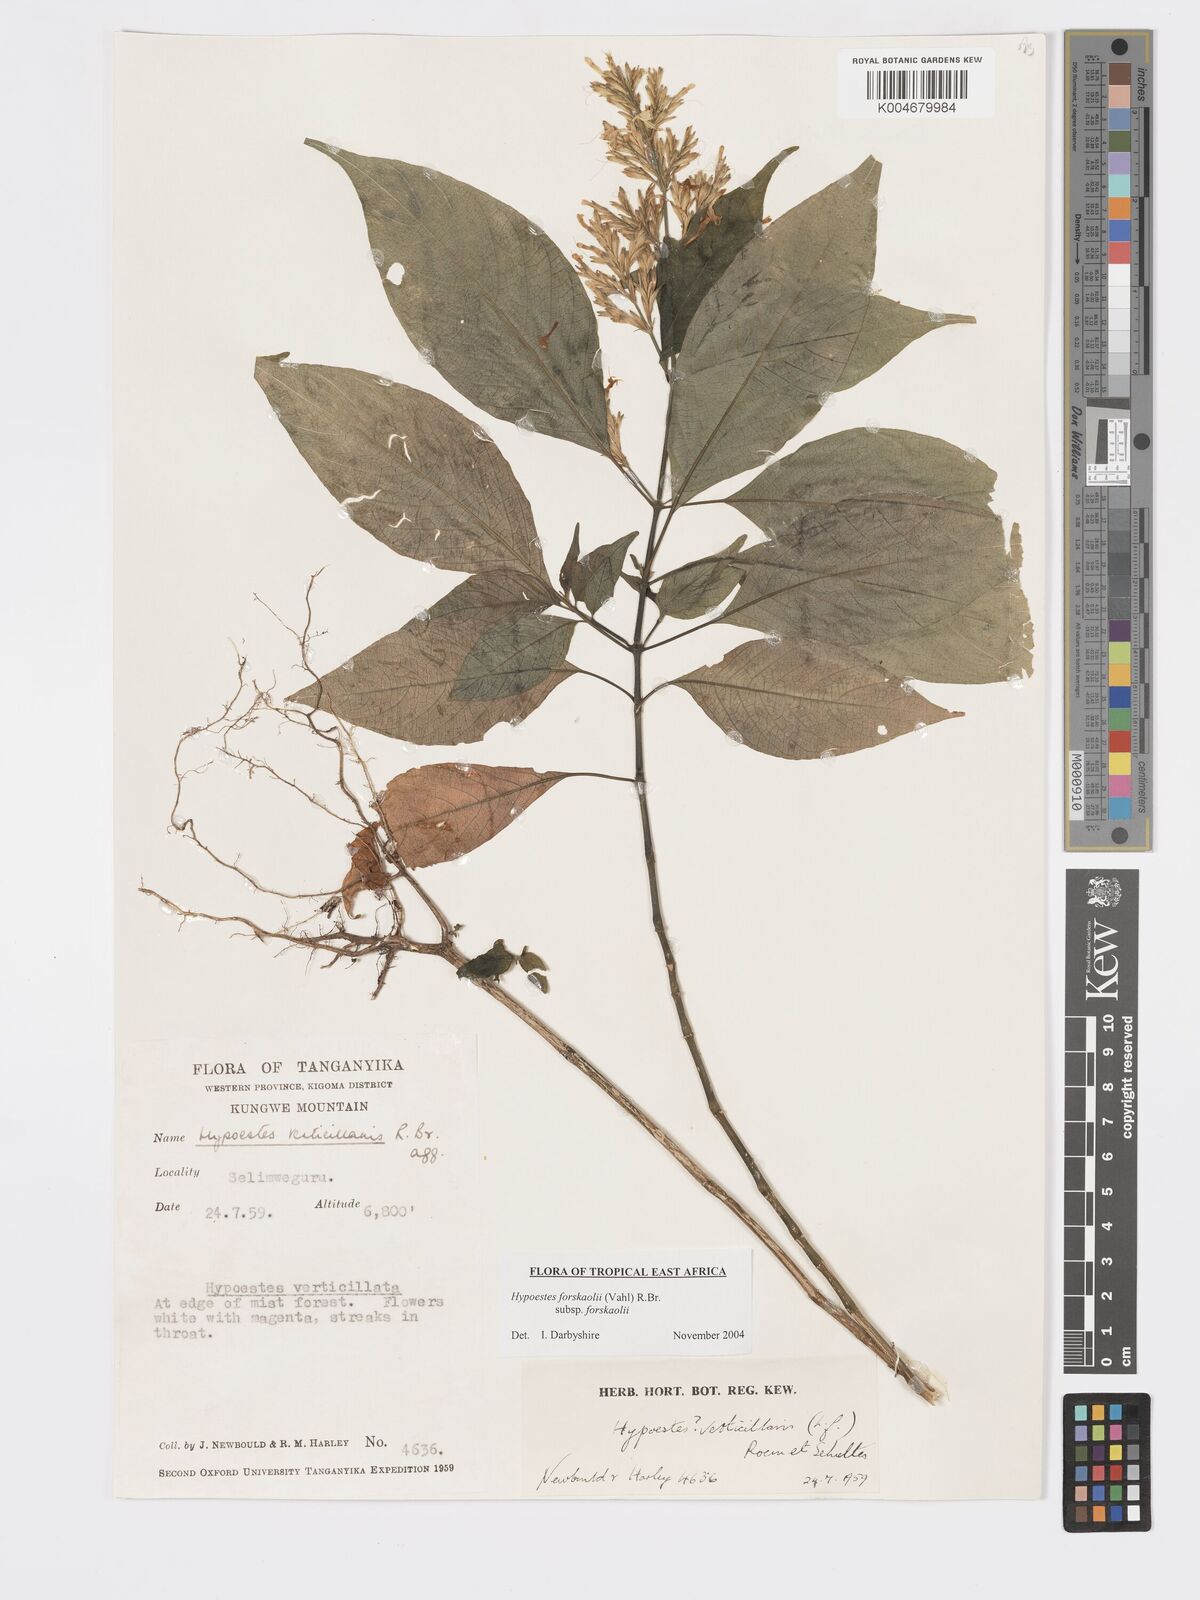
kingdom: Plantae
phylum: Tracheophyta
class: Magnoliopsida
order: Lamiales
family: Acanthaceae
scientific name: Acanthaceae
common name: Acanthaceae
